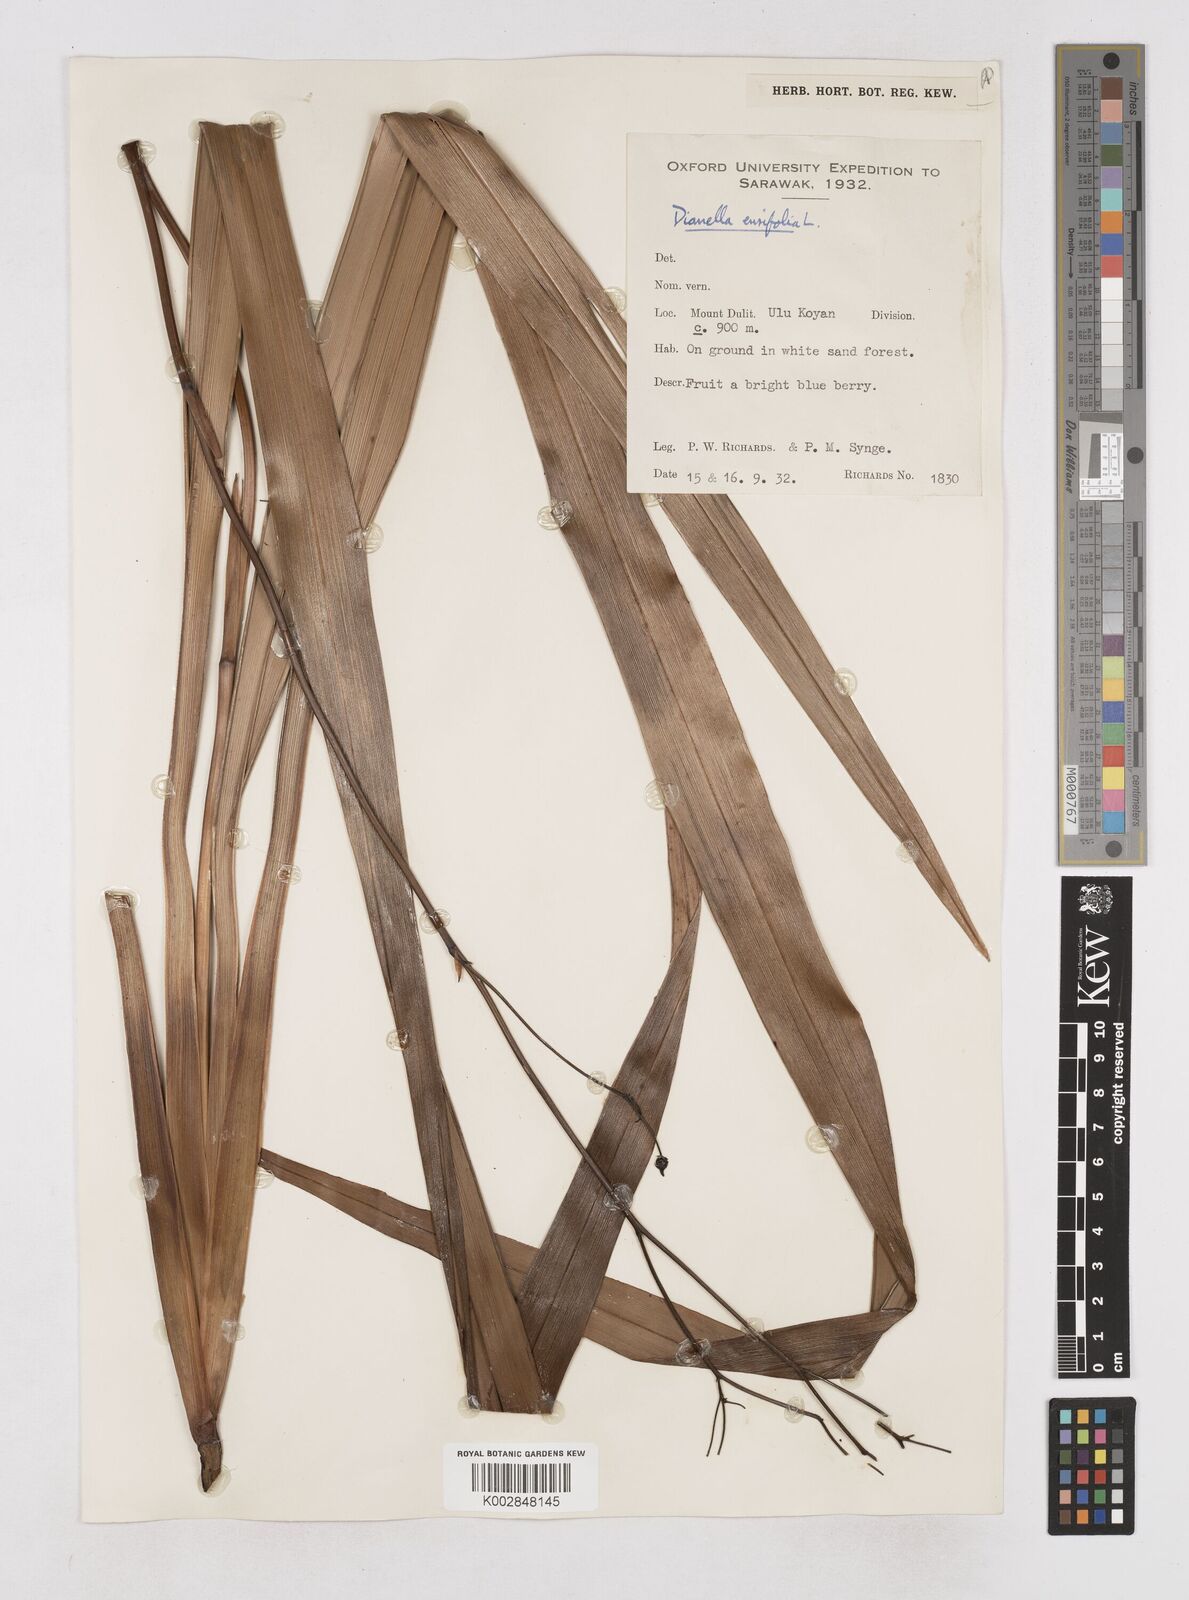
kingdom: Plantae
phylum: Tracheophyta
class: Liliopsida
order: Asparagales
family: Asphodelaceae
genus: Dianella
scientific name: Dianella ensifolia
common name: New zealand lilyplant
